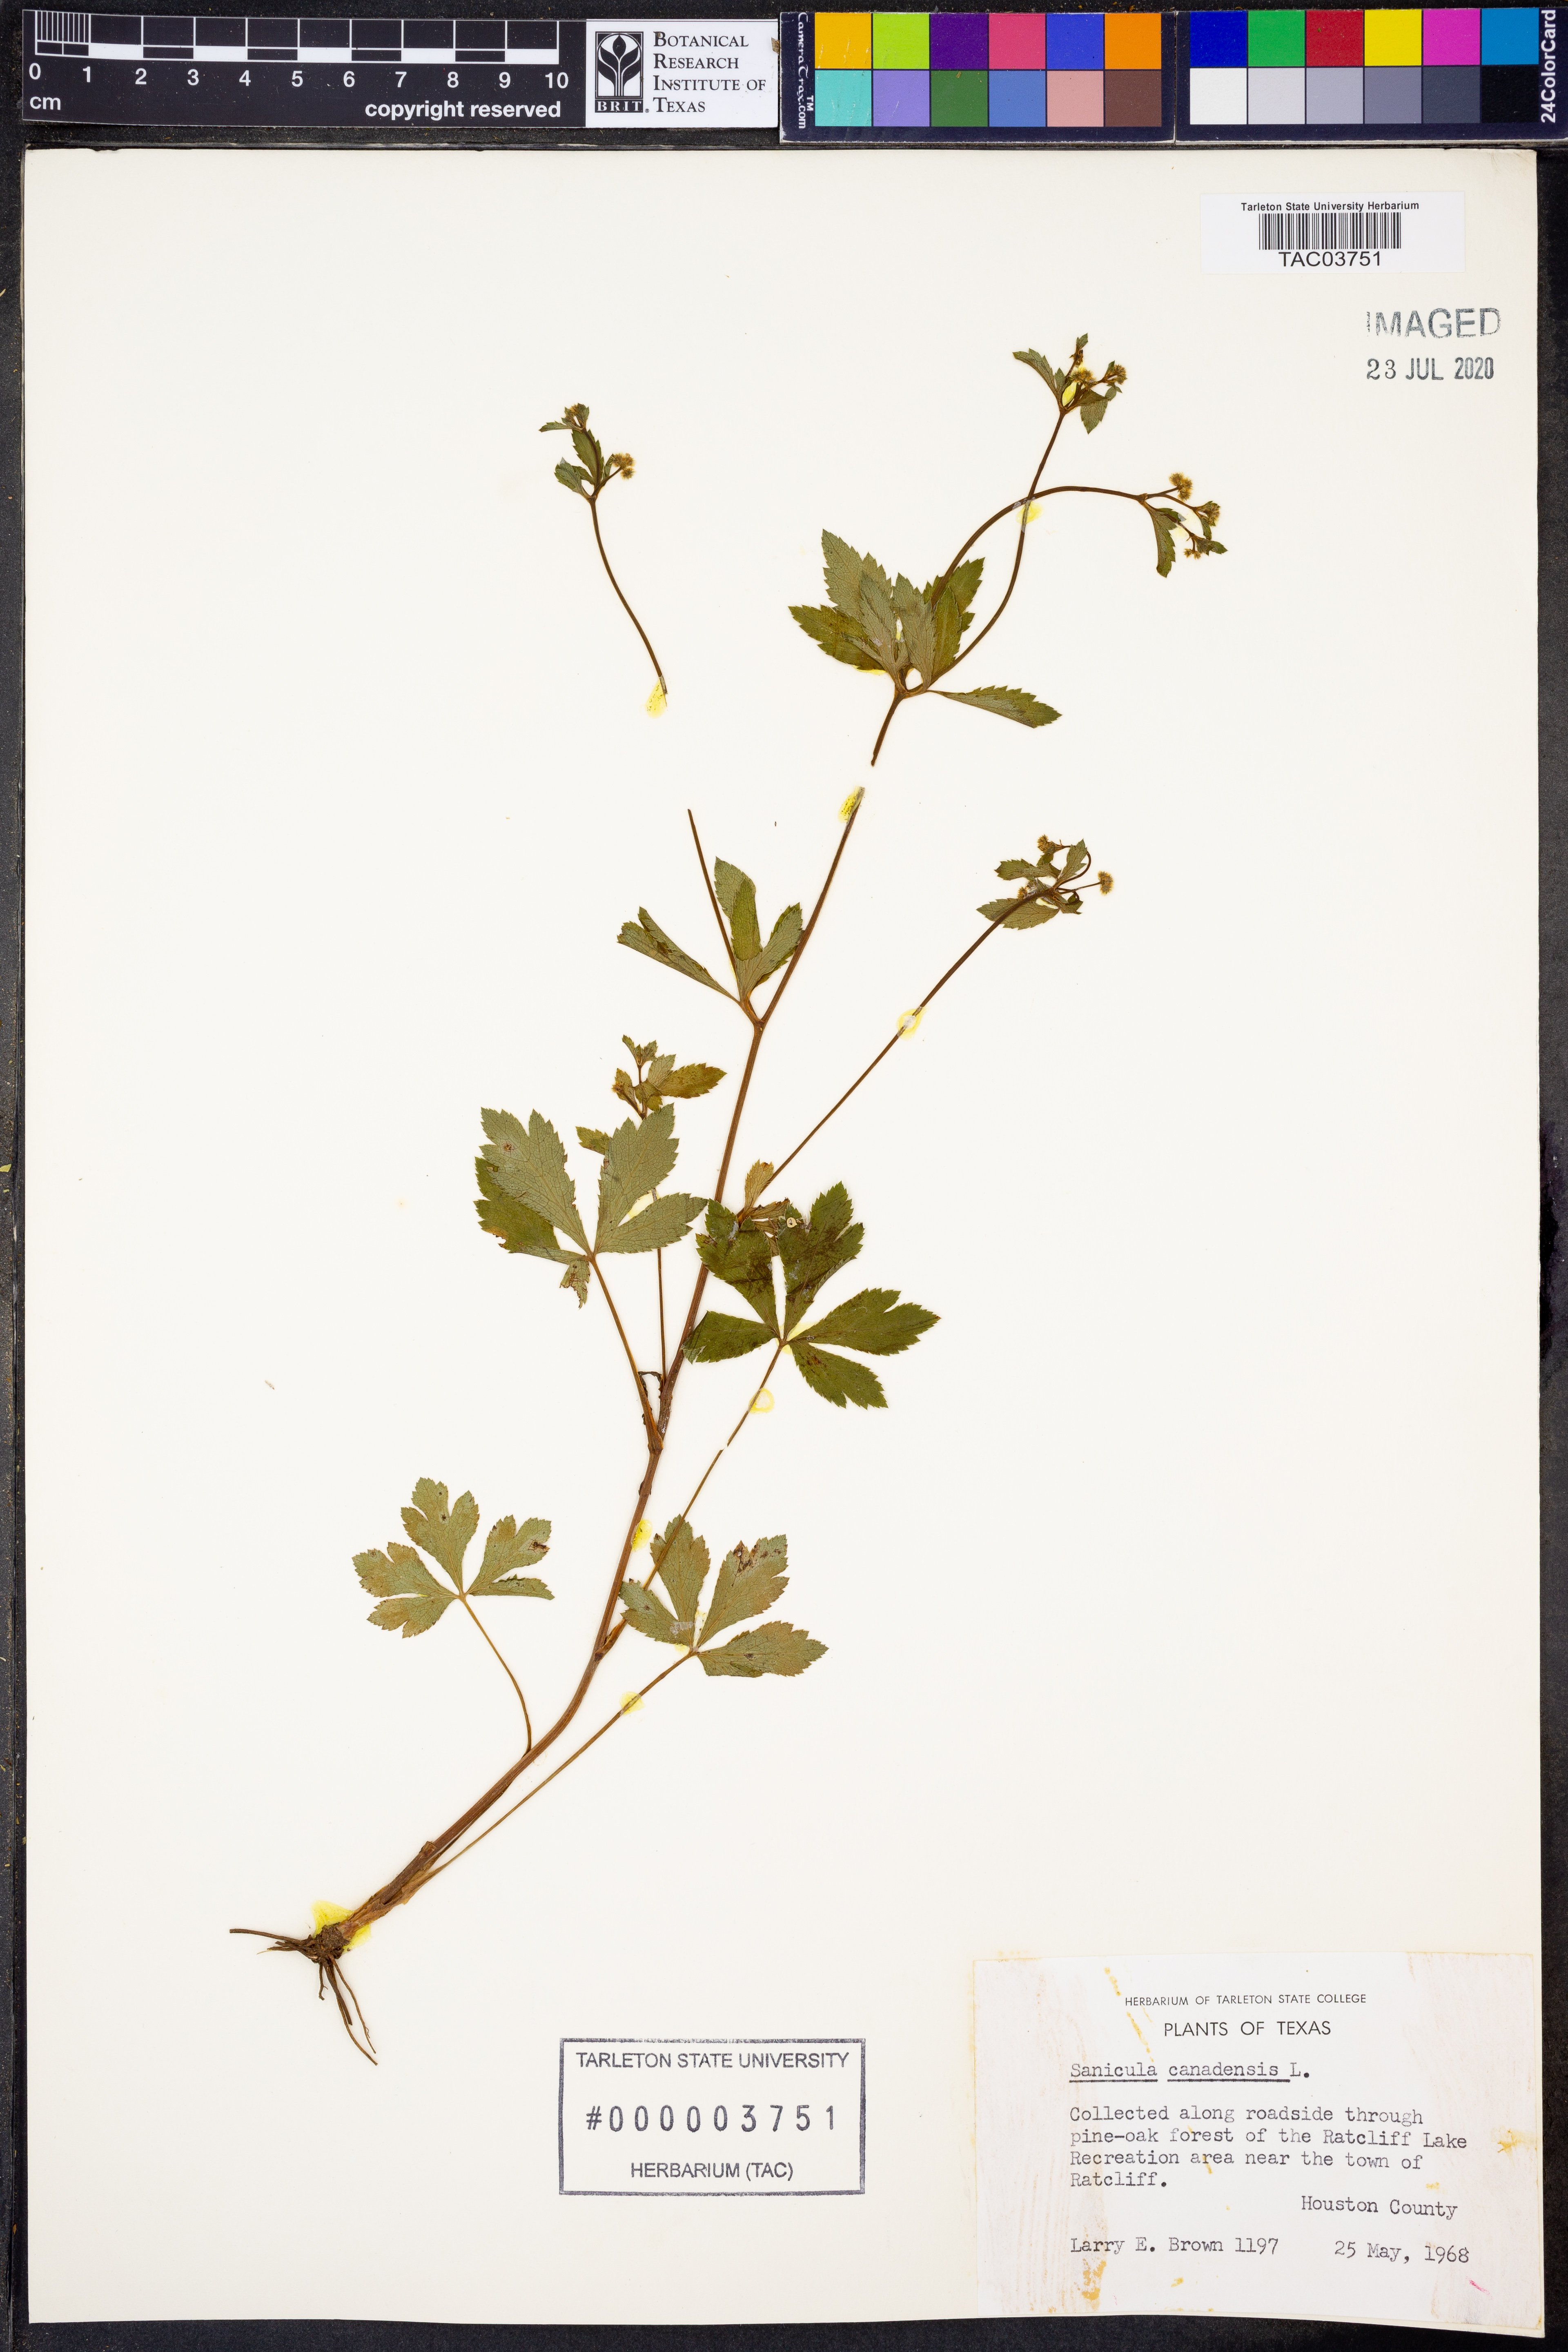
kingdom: Plantae
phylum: Tracheophyta
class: Magnoliopsida
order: Apiales
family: Apiaceae
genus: Sanicula
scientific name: Sanicula canadensis
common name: Canada sanicle
